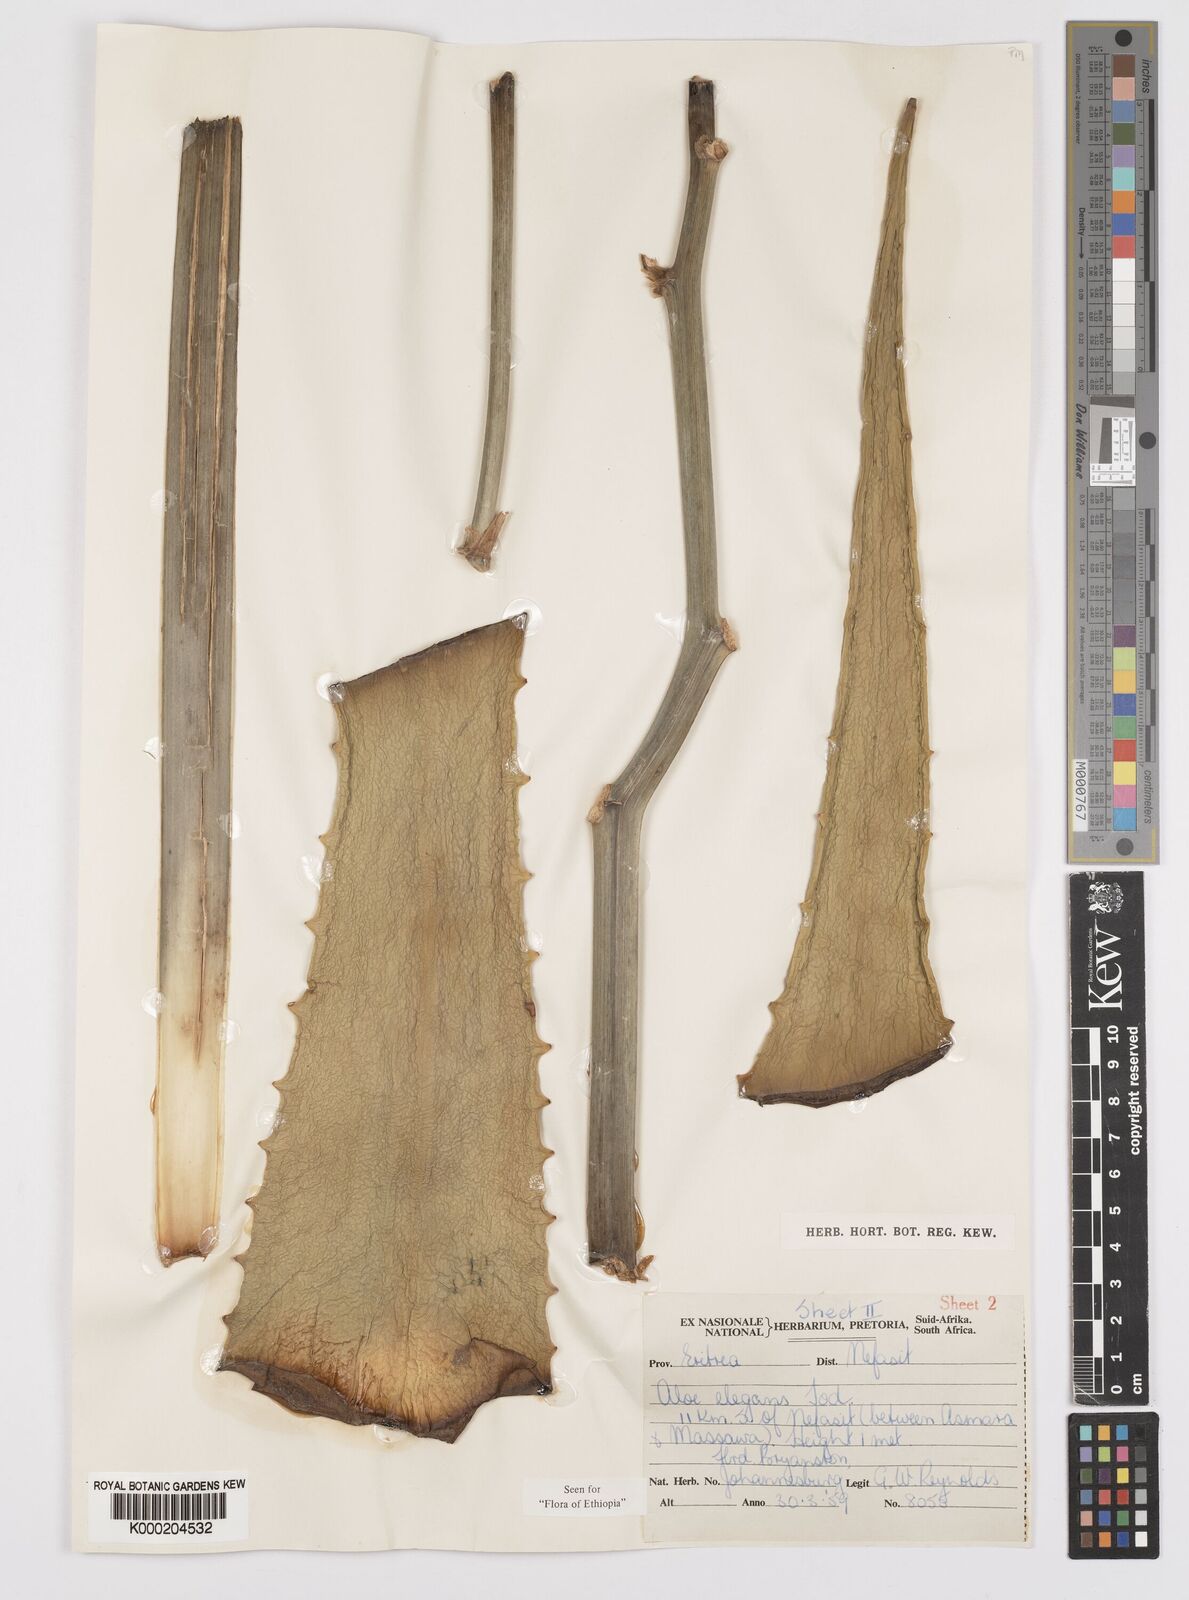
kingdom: Plantae
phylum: Tracheophyta
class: Liliopsida
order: Asparagales
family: Asphodelaceae
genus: Aloe
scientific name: Aloe elegans
